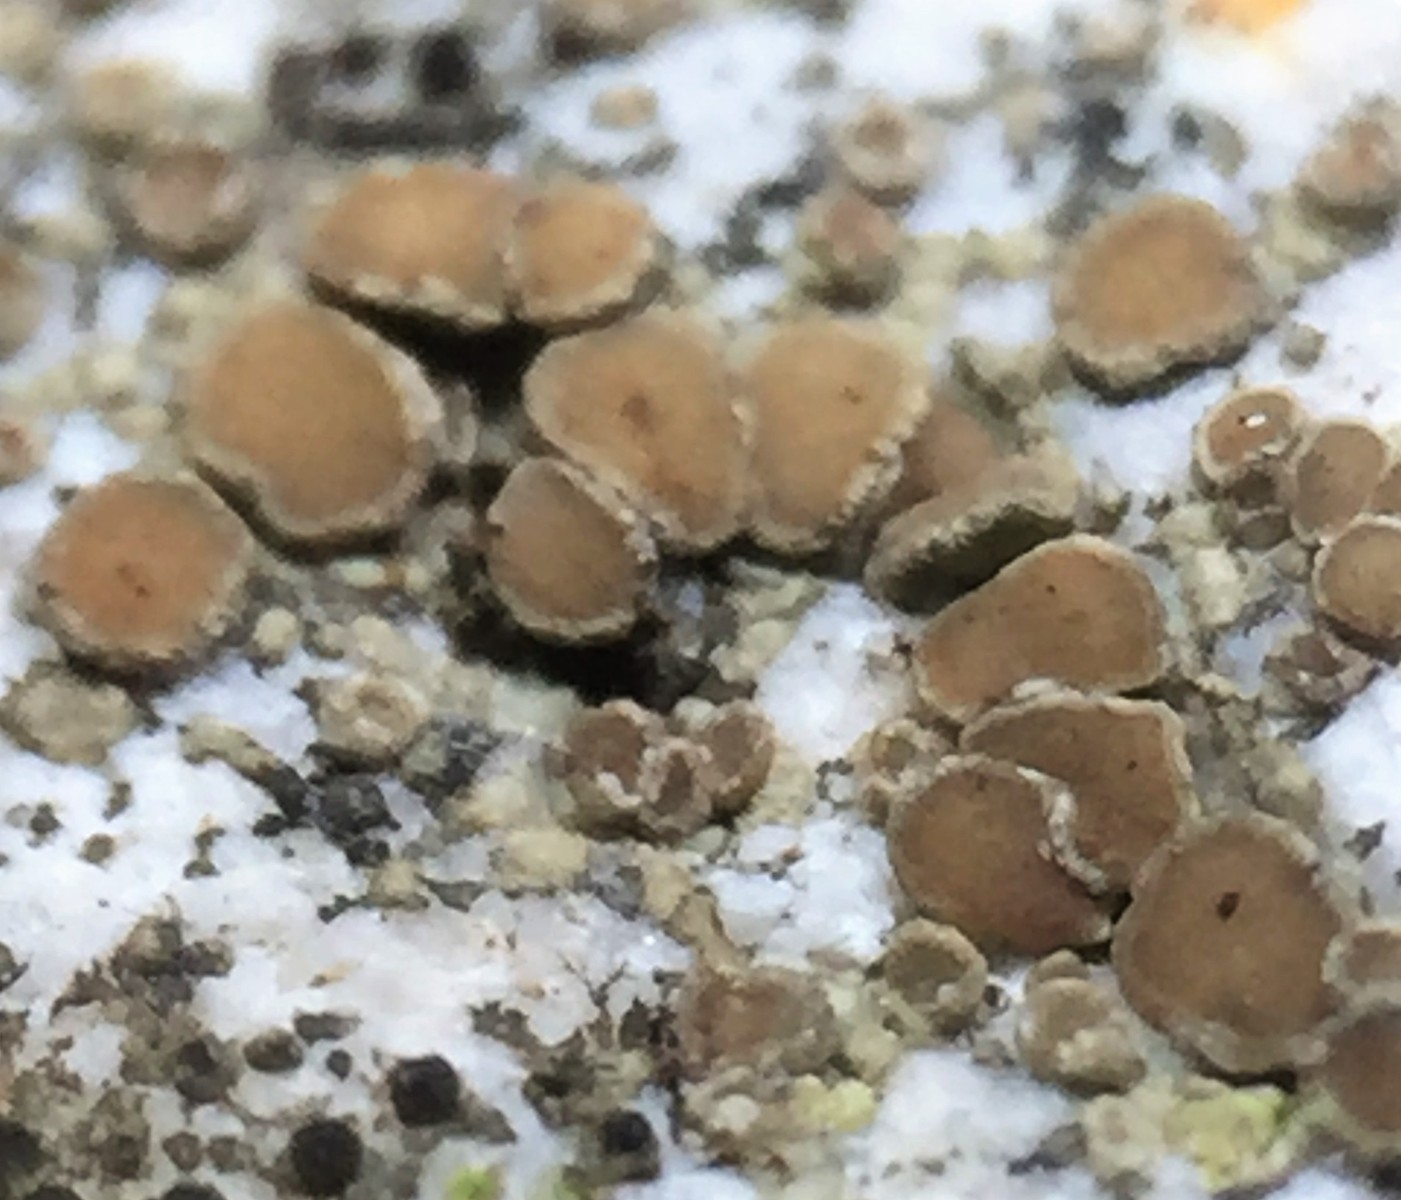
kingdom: Fungi
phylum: Ascomycota
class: Lecanoromycetes
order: Lecanorales
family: Lecanoraceae
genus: Polyozosia
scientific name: Polyozosia dispersa
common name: spredt kantskivelav
